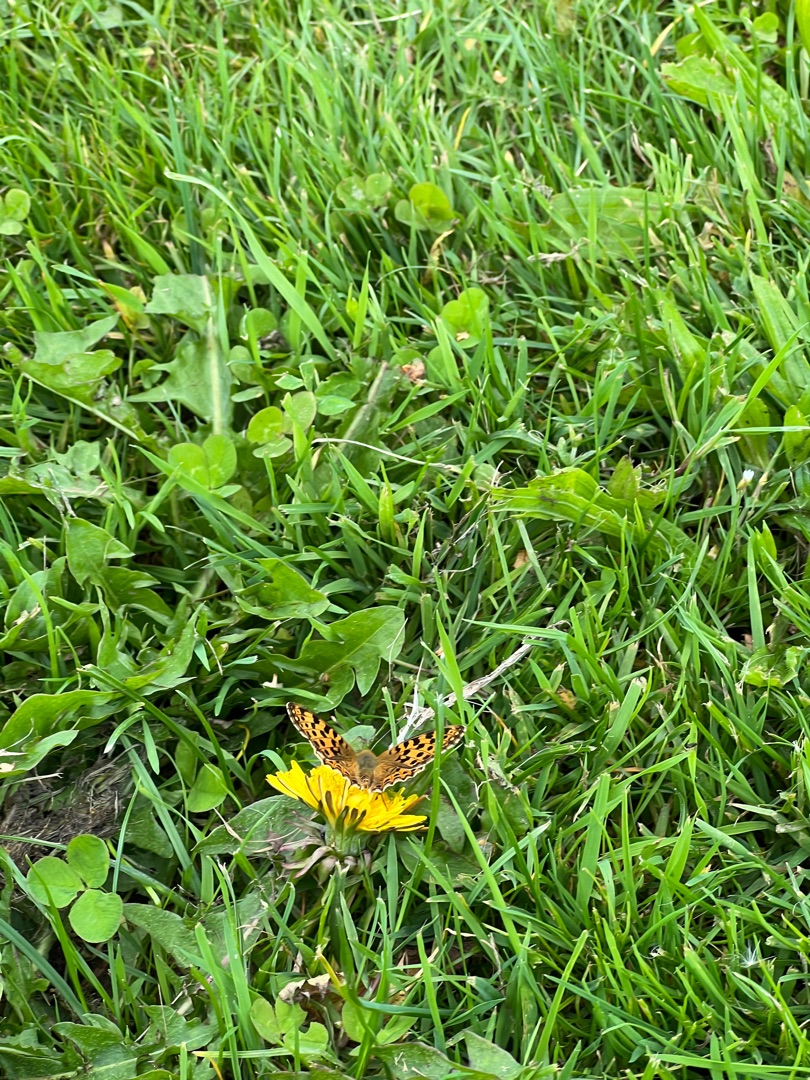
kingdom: Animalia
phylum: Arthropoda
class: Insecta
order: Lepidoptera
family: Nymphalidae
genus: Issoria
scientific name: Issoria lathonia
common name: Storplettet perlemorsommerfugl
